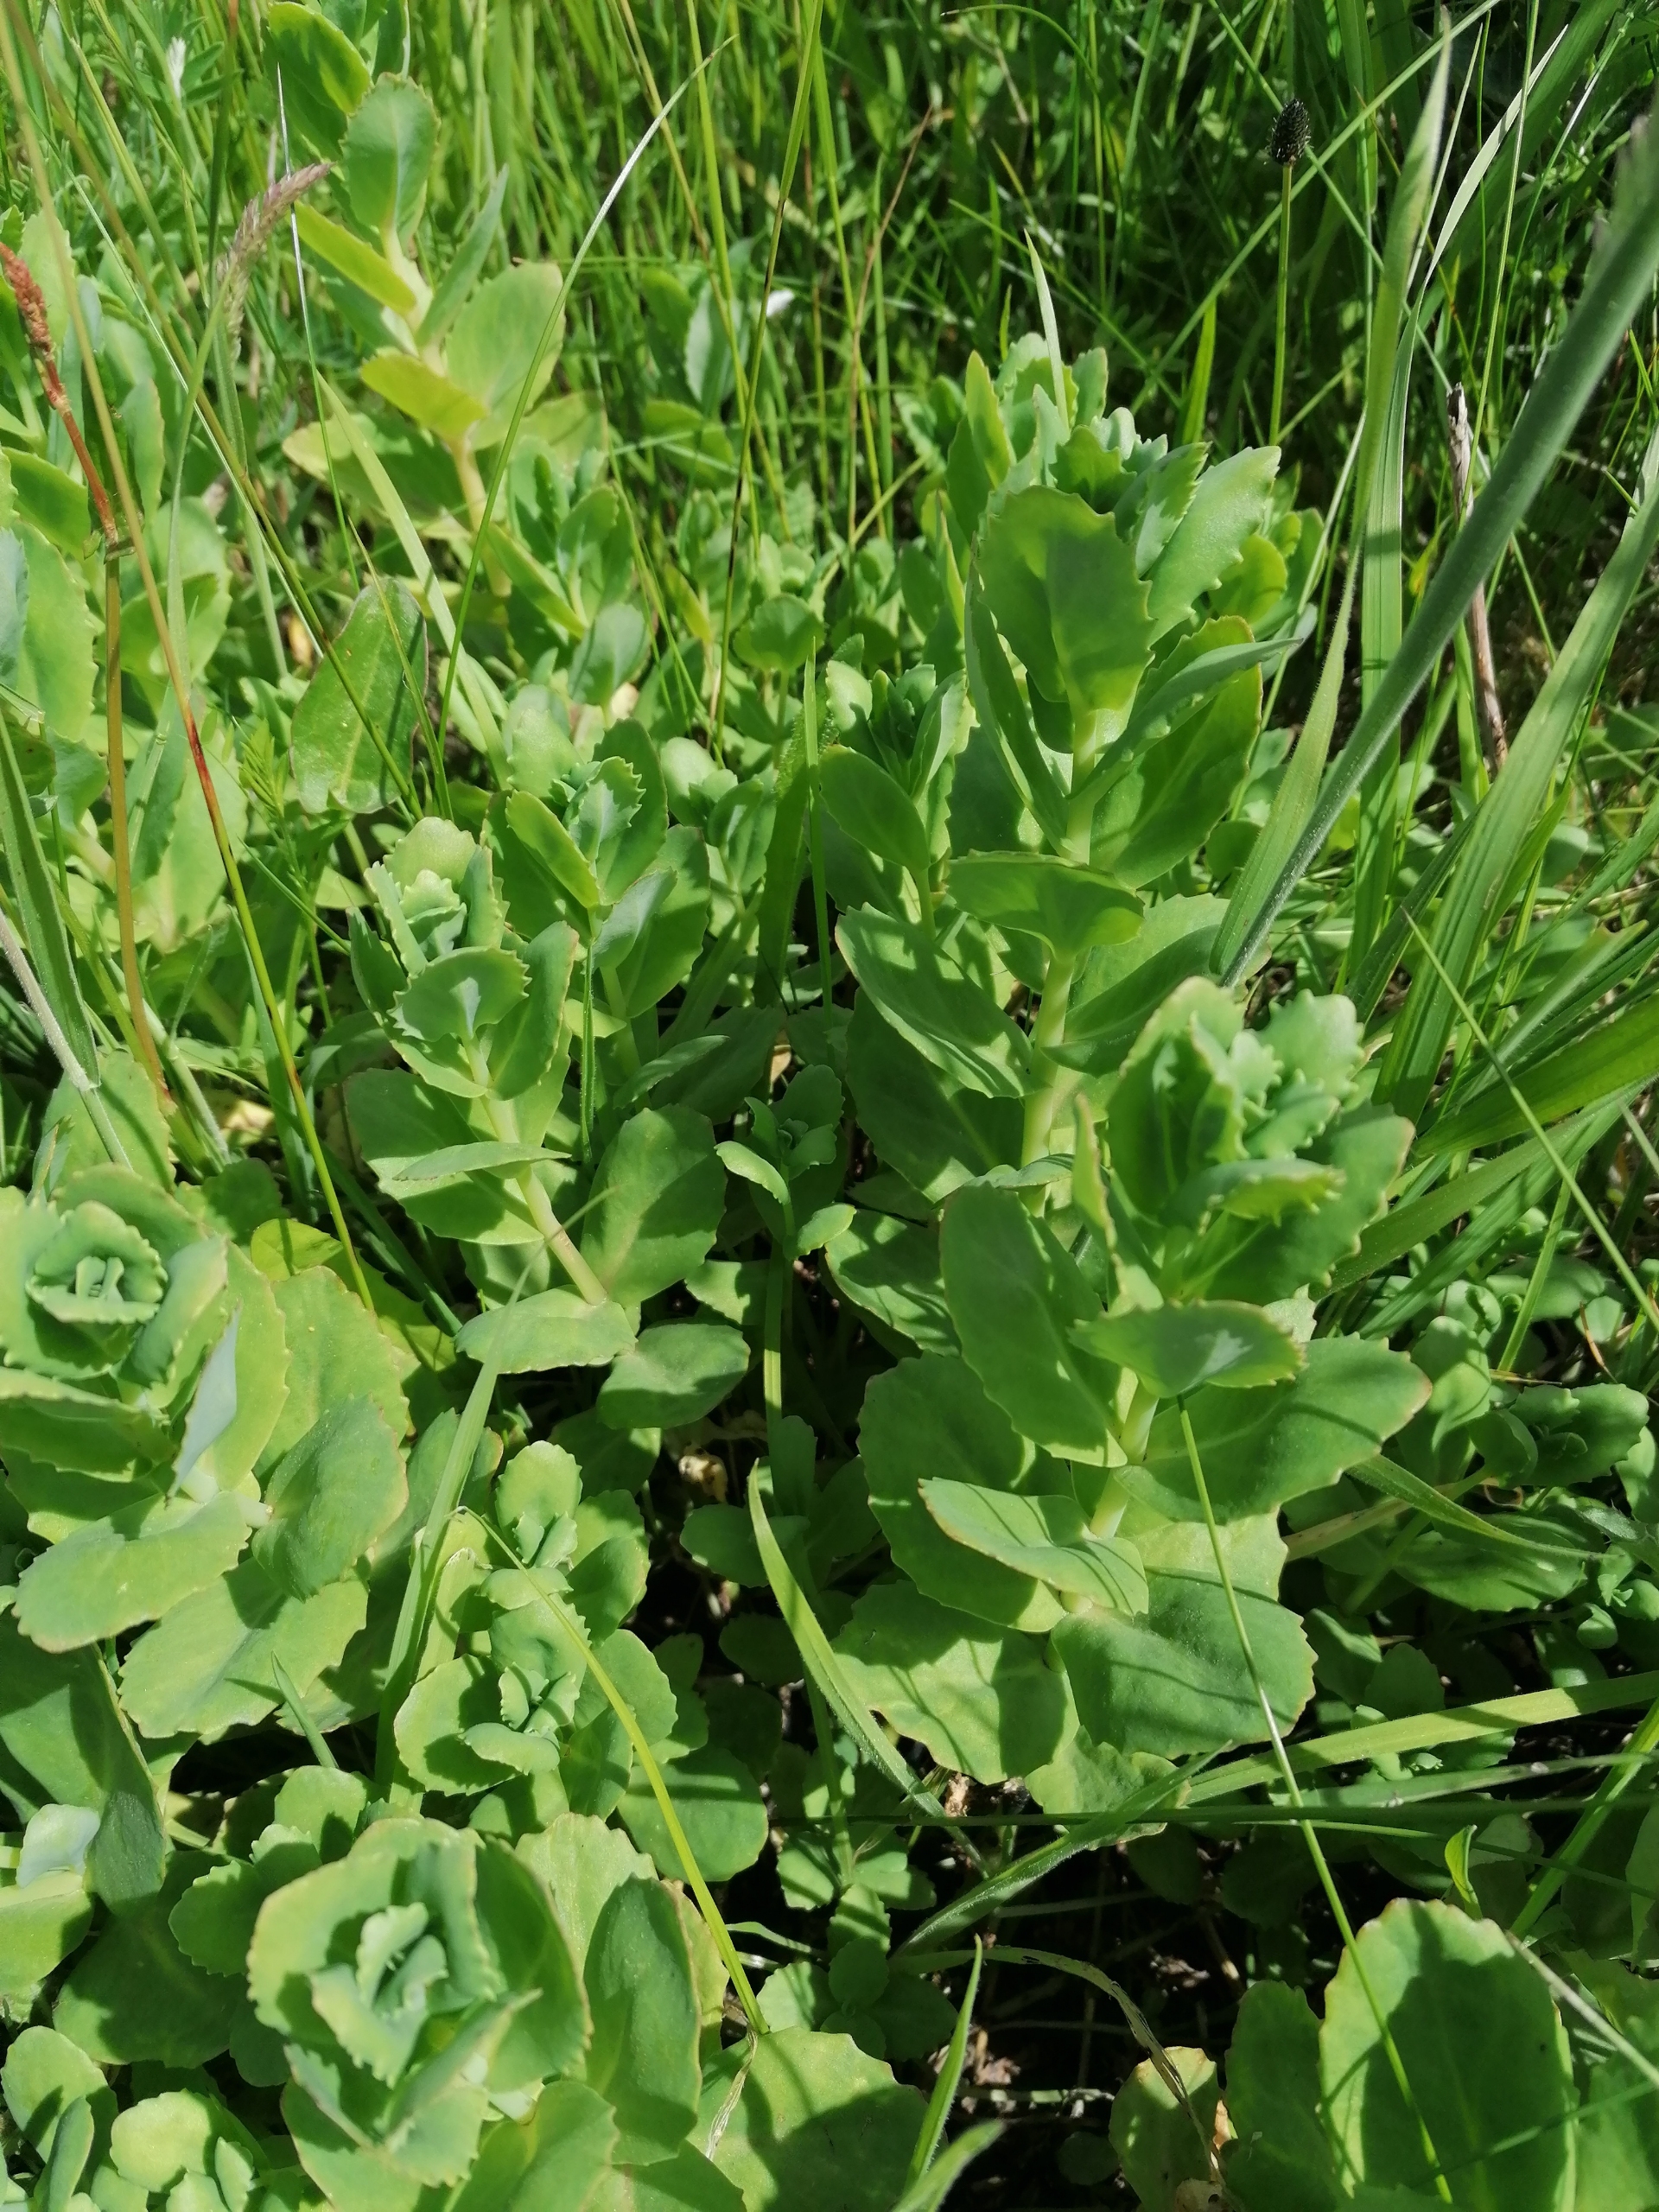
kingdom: Plantae
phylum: Tracheophyta
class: Magnoliopsida
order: Saxifragales
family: Crassulaceae
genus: Hylotelephium
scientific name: Hylotelephium telephium
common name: Sankthansurt
